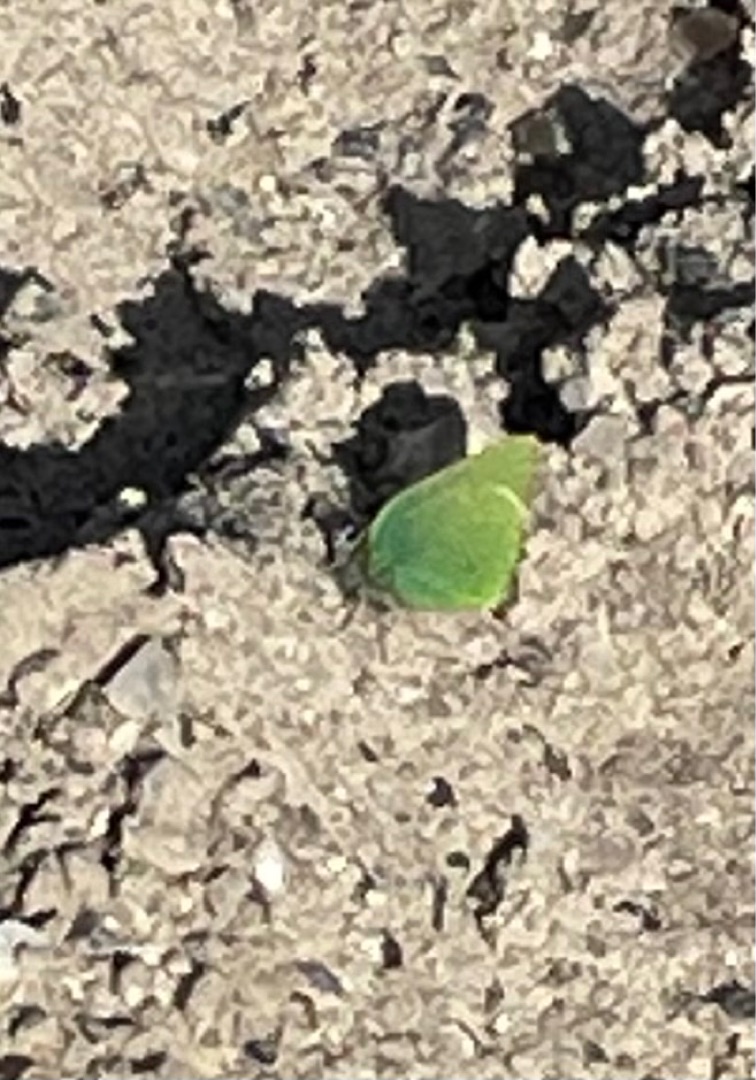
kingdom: Animalia
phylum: Arthropoda
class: Insecta
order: Lepidoptera
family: Lycaenidae
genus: Callophrys
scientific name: Callophrys rubi
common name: Grøn busksommerfugl
